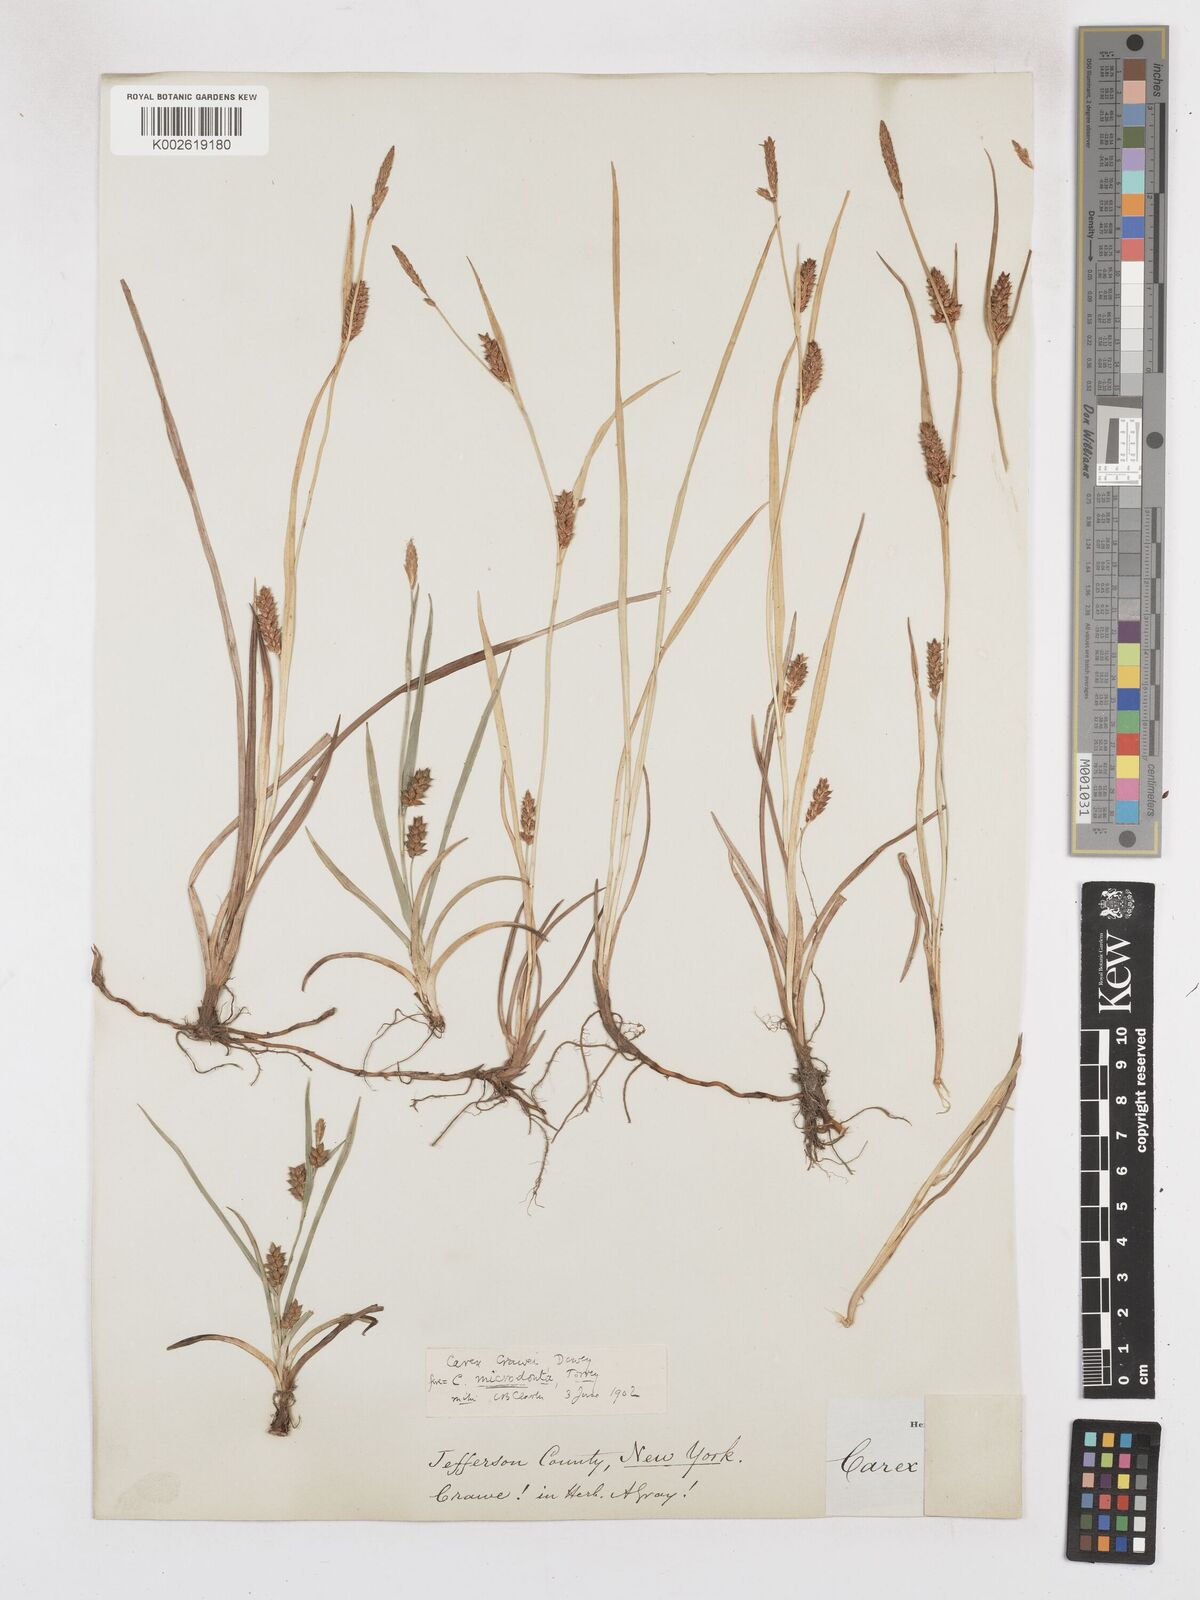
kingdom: Plantae
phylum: Tracheophyta
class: Liliopsida
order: Poales
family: Cyperaceae
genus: Carex
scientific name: Carex crawei
